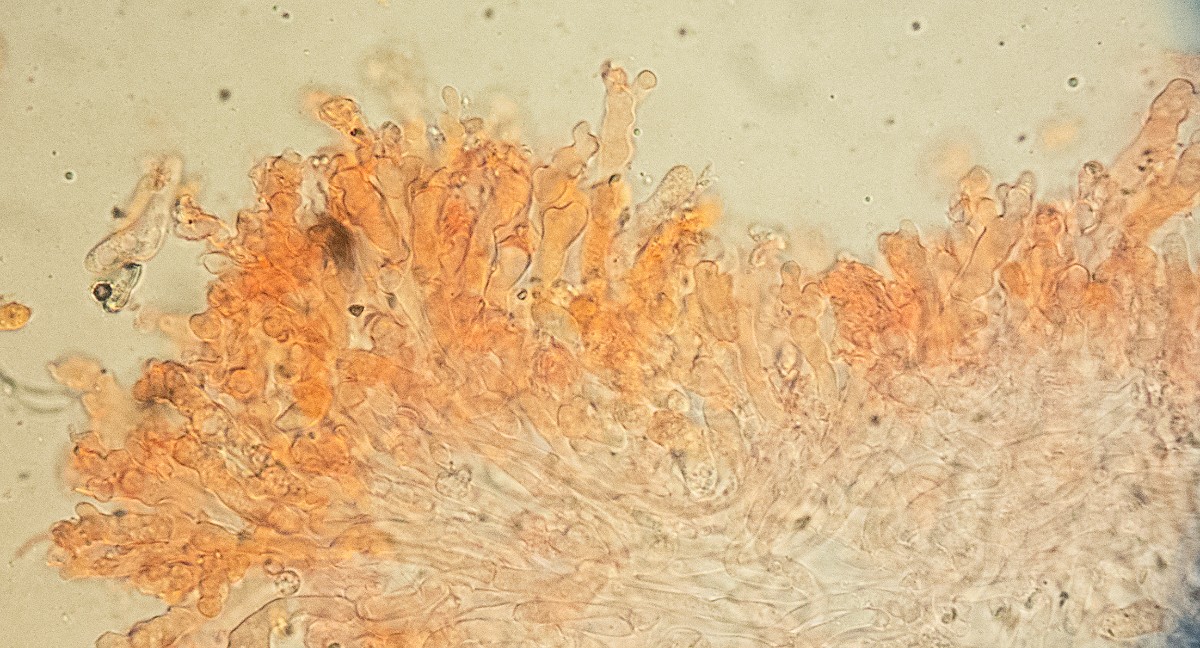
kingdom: Fungi
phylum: Basidiomycota
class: Agaricomycetes
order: Agaricales
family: Omphalotaceae
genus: Collybiopsis
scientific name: Collybiopsis vaillantii
